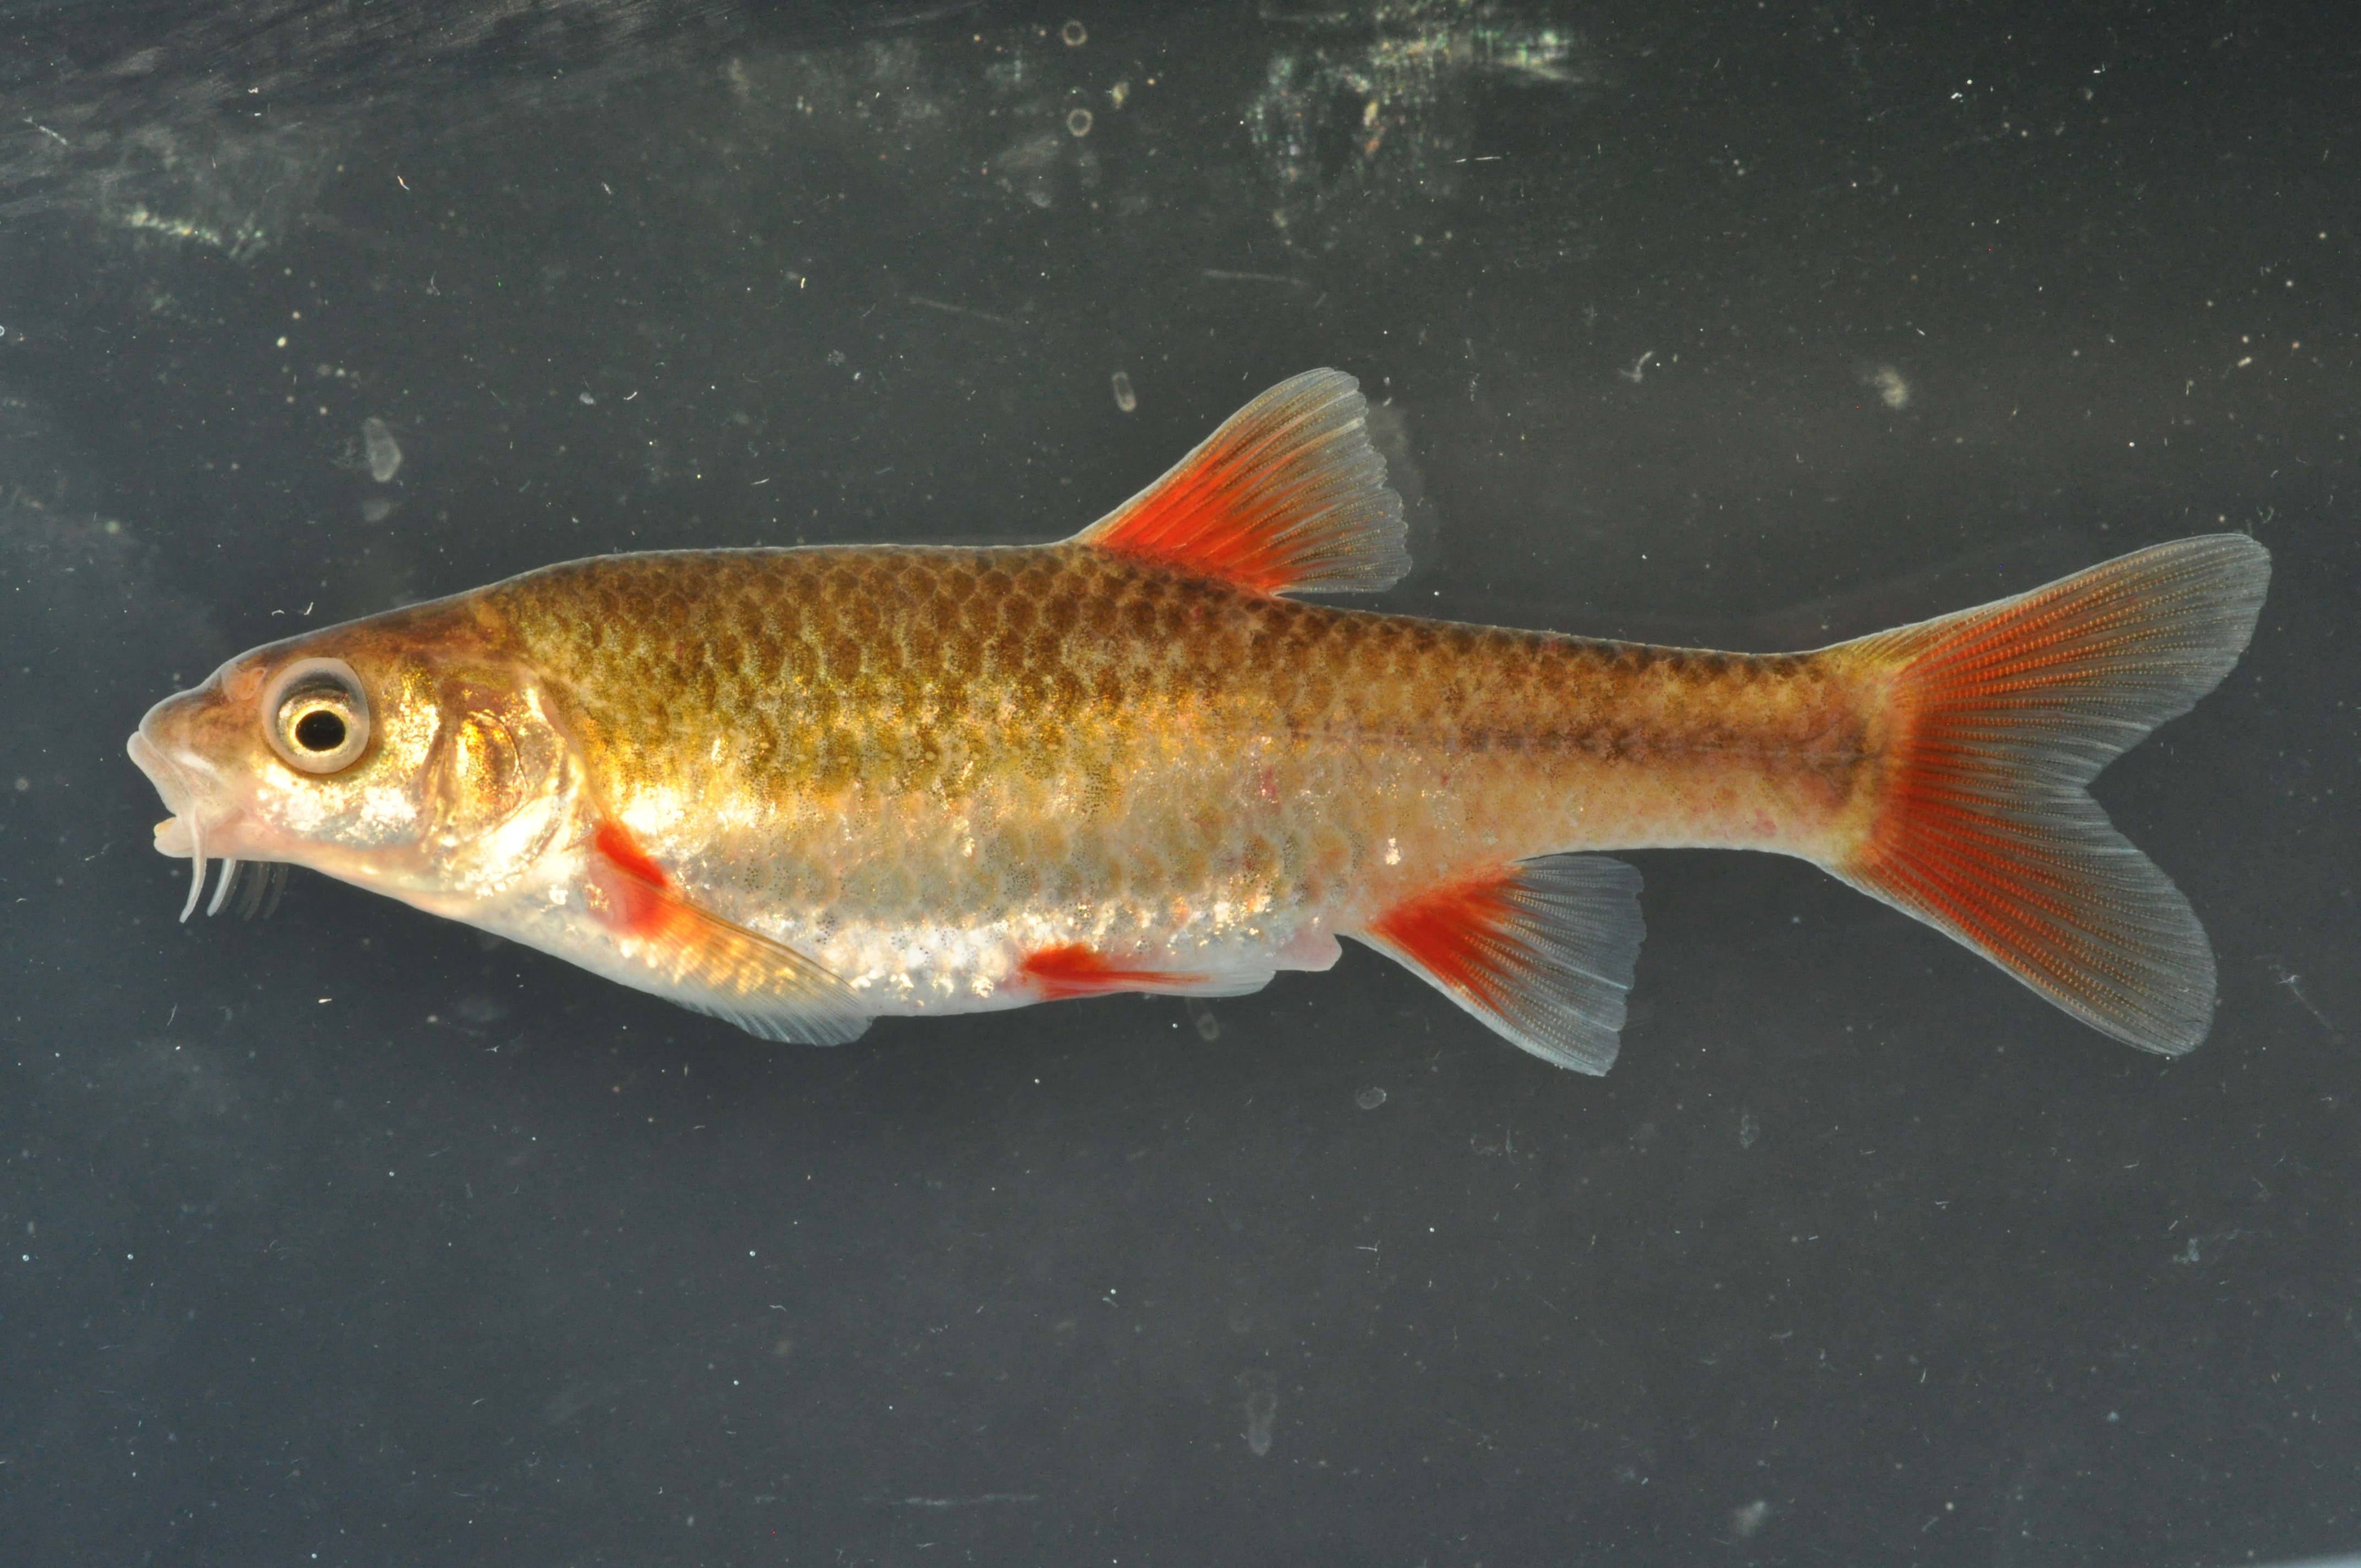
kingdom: Animalia
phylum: Chordata
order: Cypriniformes
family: Cyprinidae
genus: Pseudobarbus
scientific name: Pseudobarbus afer
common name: Eastern cape redfin
